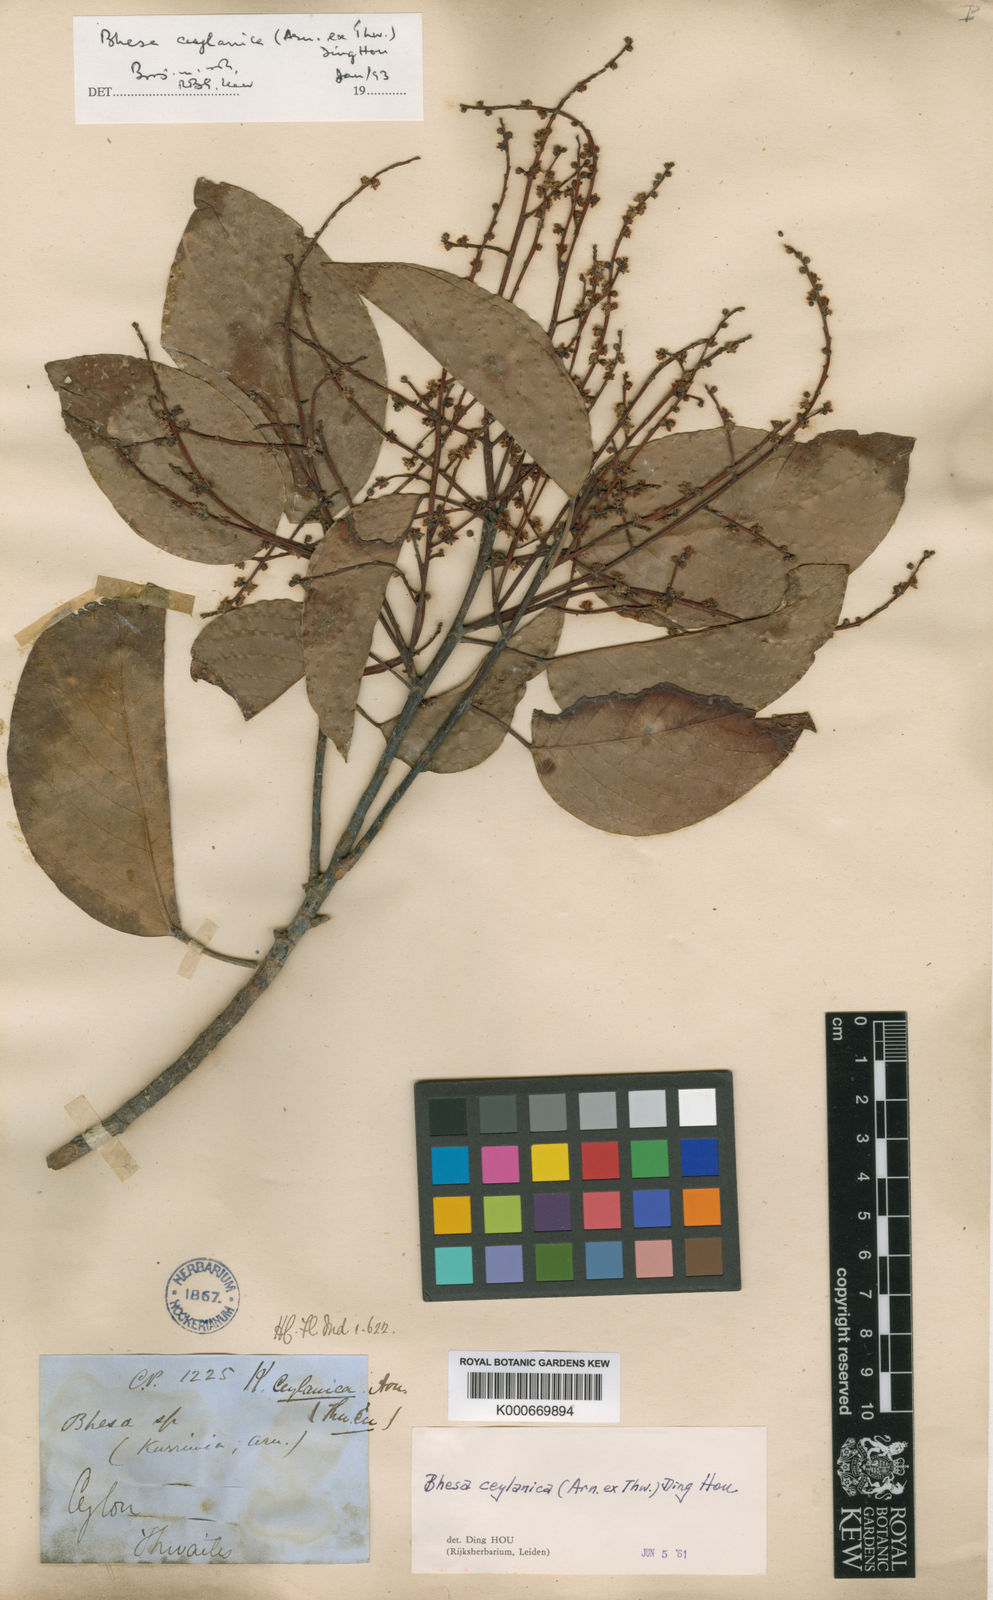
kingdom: Plantae
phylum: Tracheophyta
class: Magnoliopsida
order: Malpighiales
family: Centroplacaceae
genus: Bhesa
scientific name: Bhesa ceylanica
